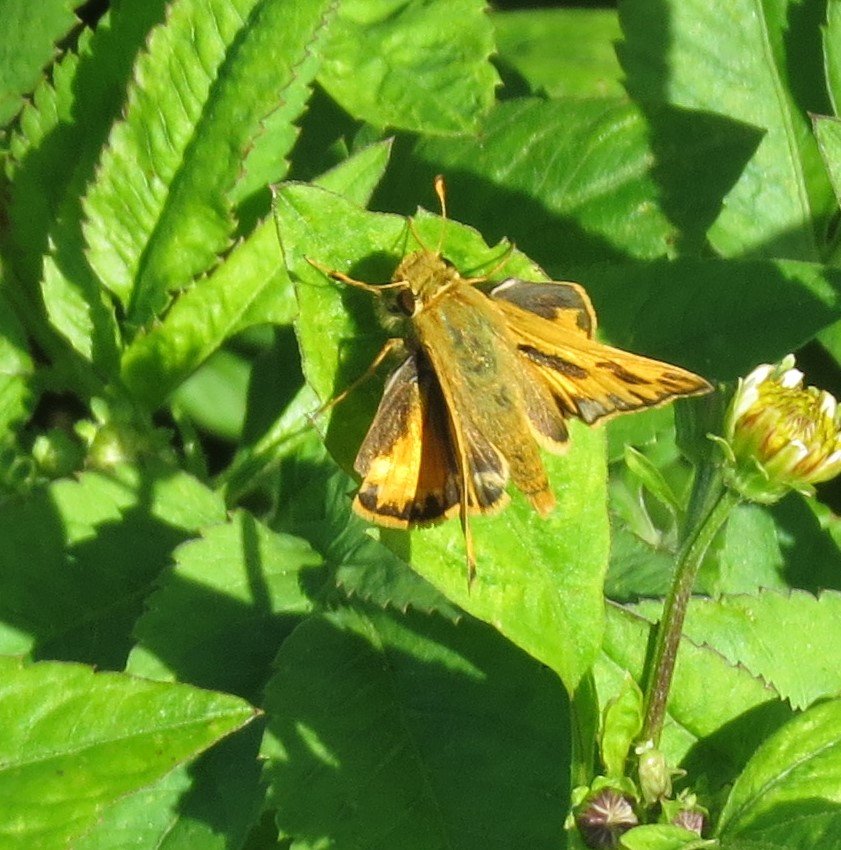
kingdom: Animalia
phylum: Arthropoda
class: Insecta
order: Lepidoptera
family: Hesperiidae
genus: Hylephila
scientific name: Hylephila phyleus
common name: Fiery Skipper
